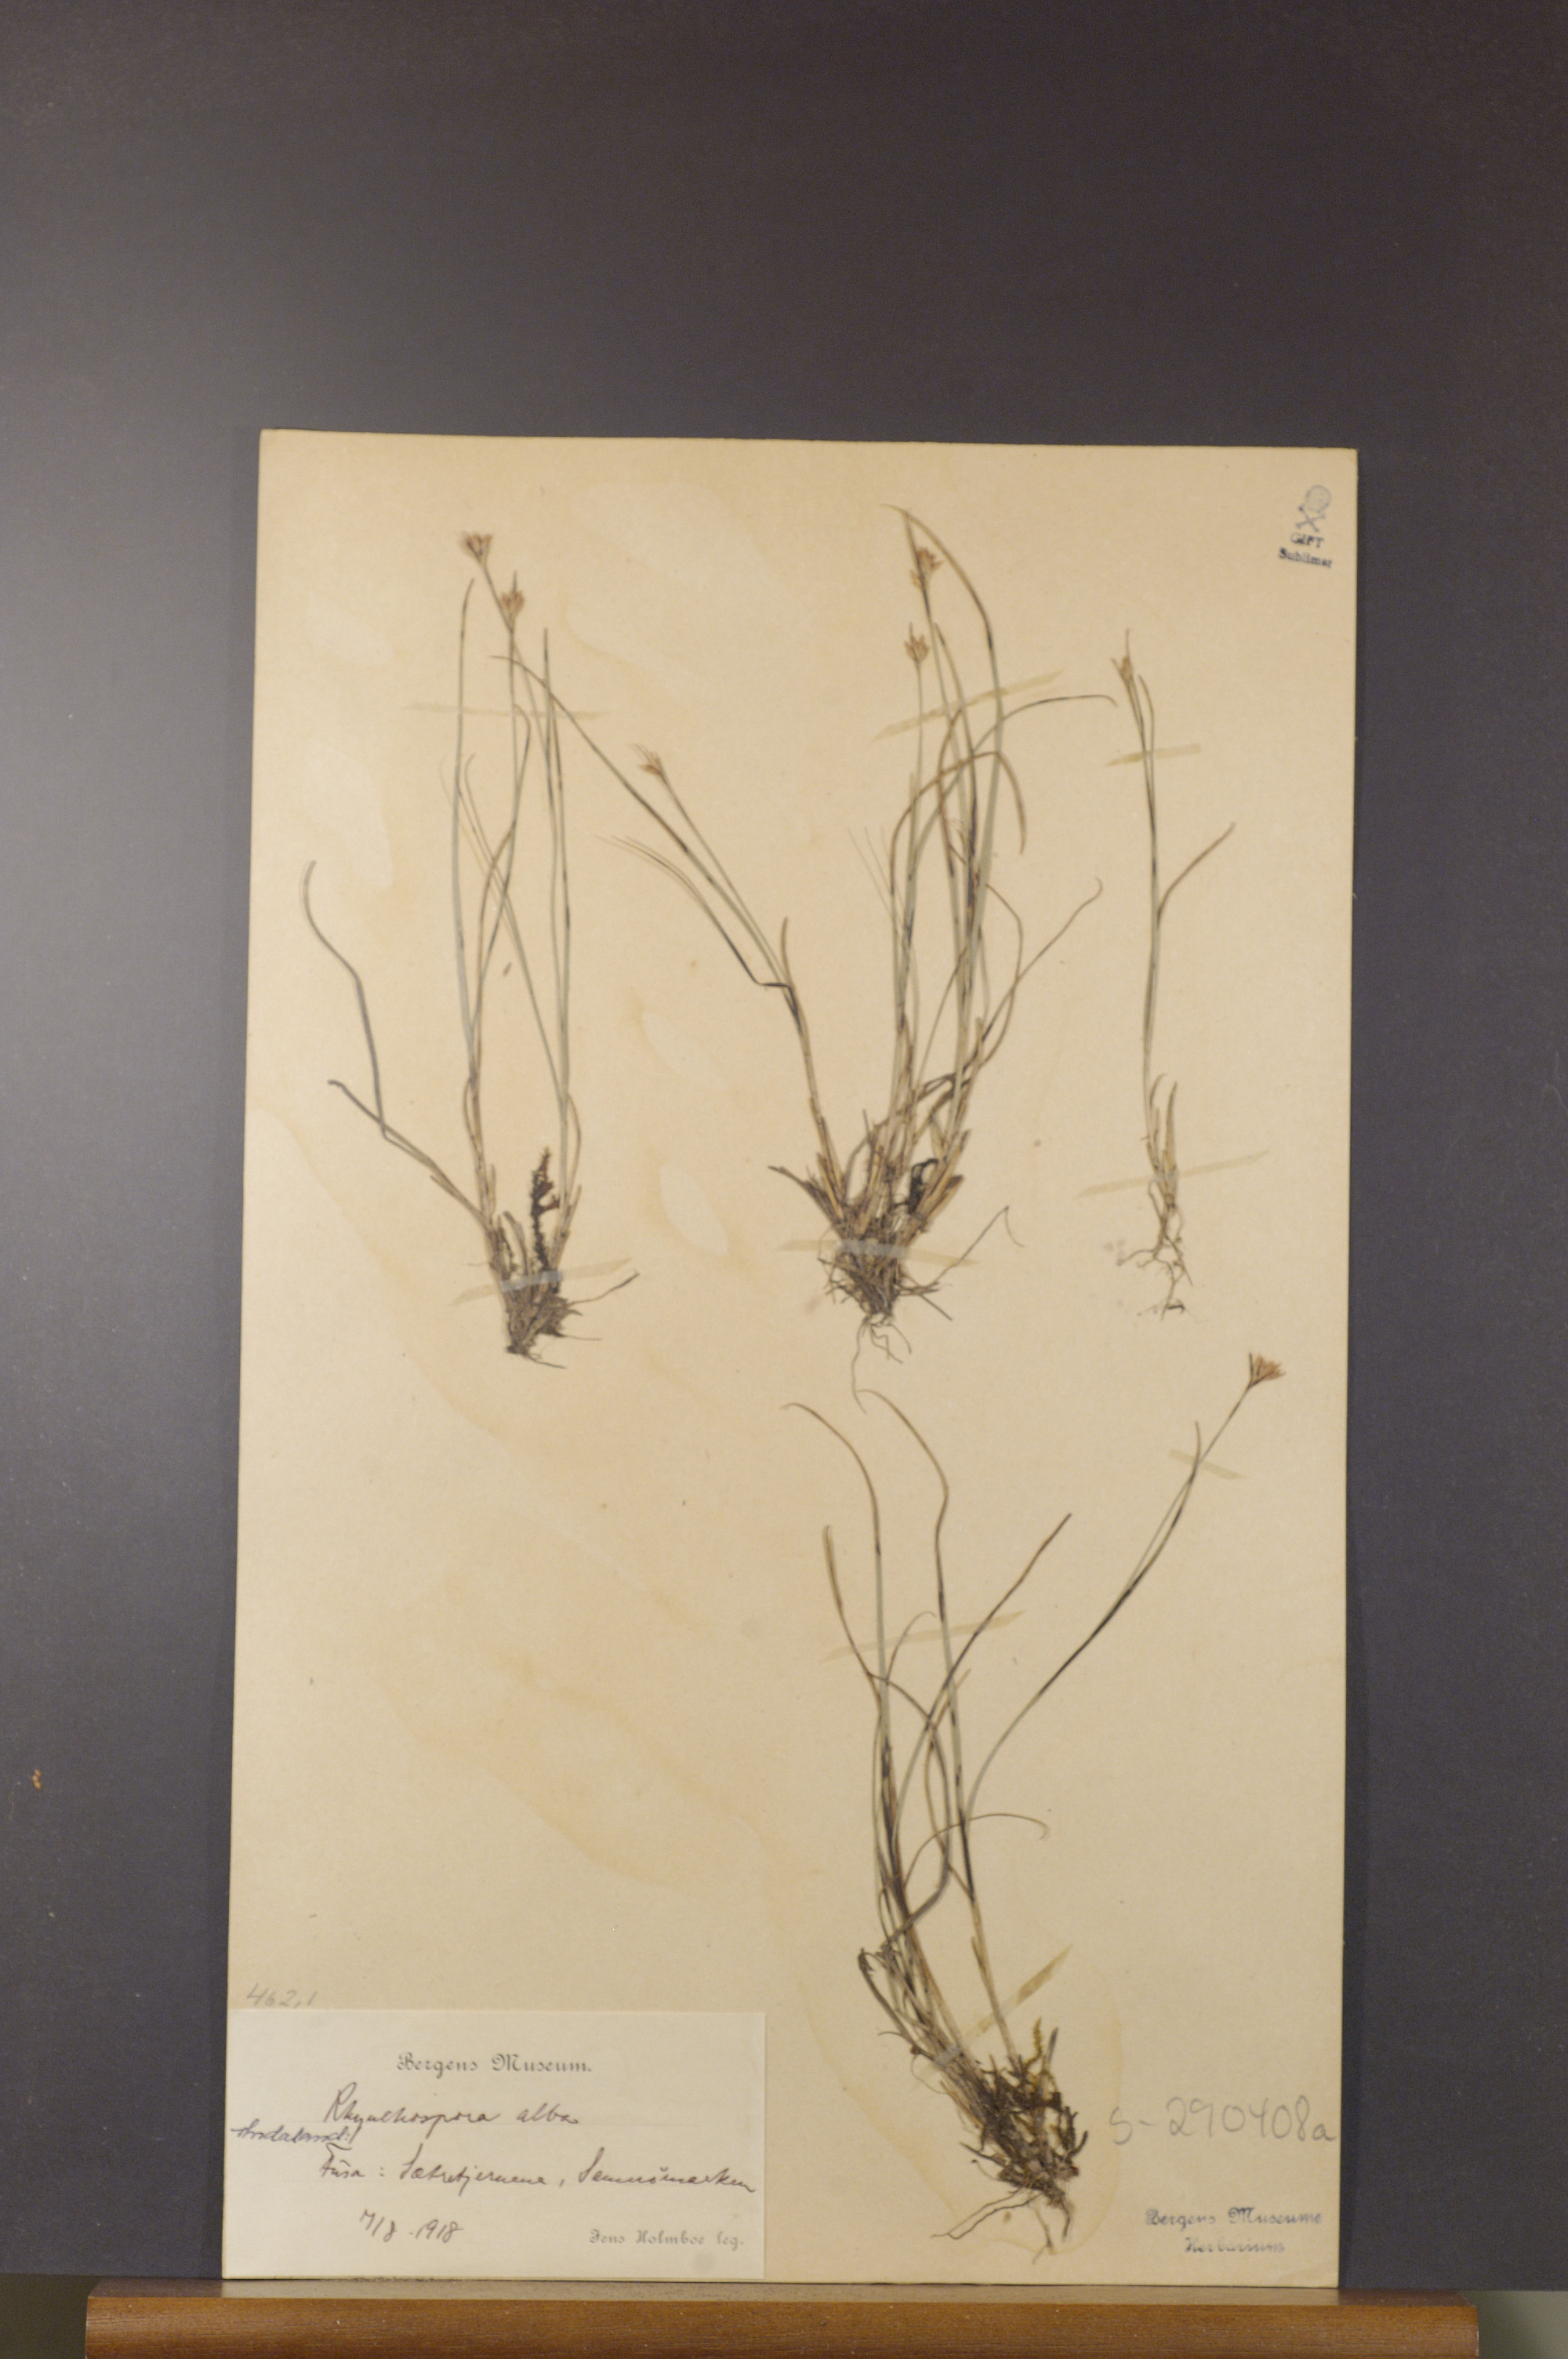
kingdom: Plantae
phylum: Tracheophyta
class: Liliopsida
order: Poales
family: Cyperaceae
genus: Rhynchospora
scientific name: Rhynchospora alba
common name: White beak-sedge
